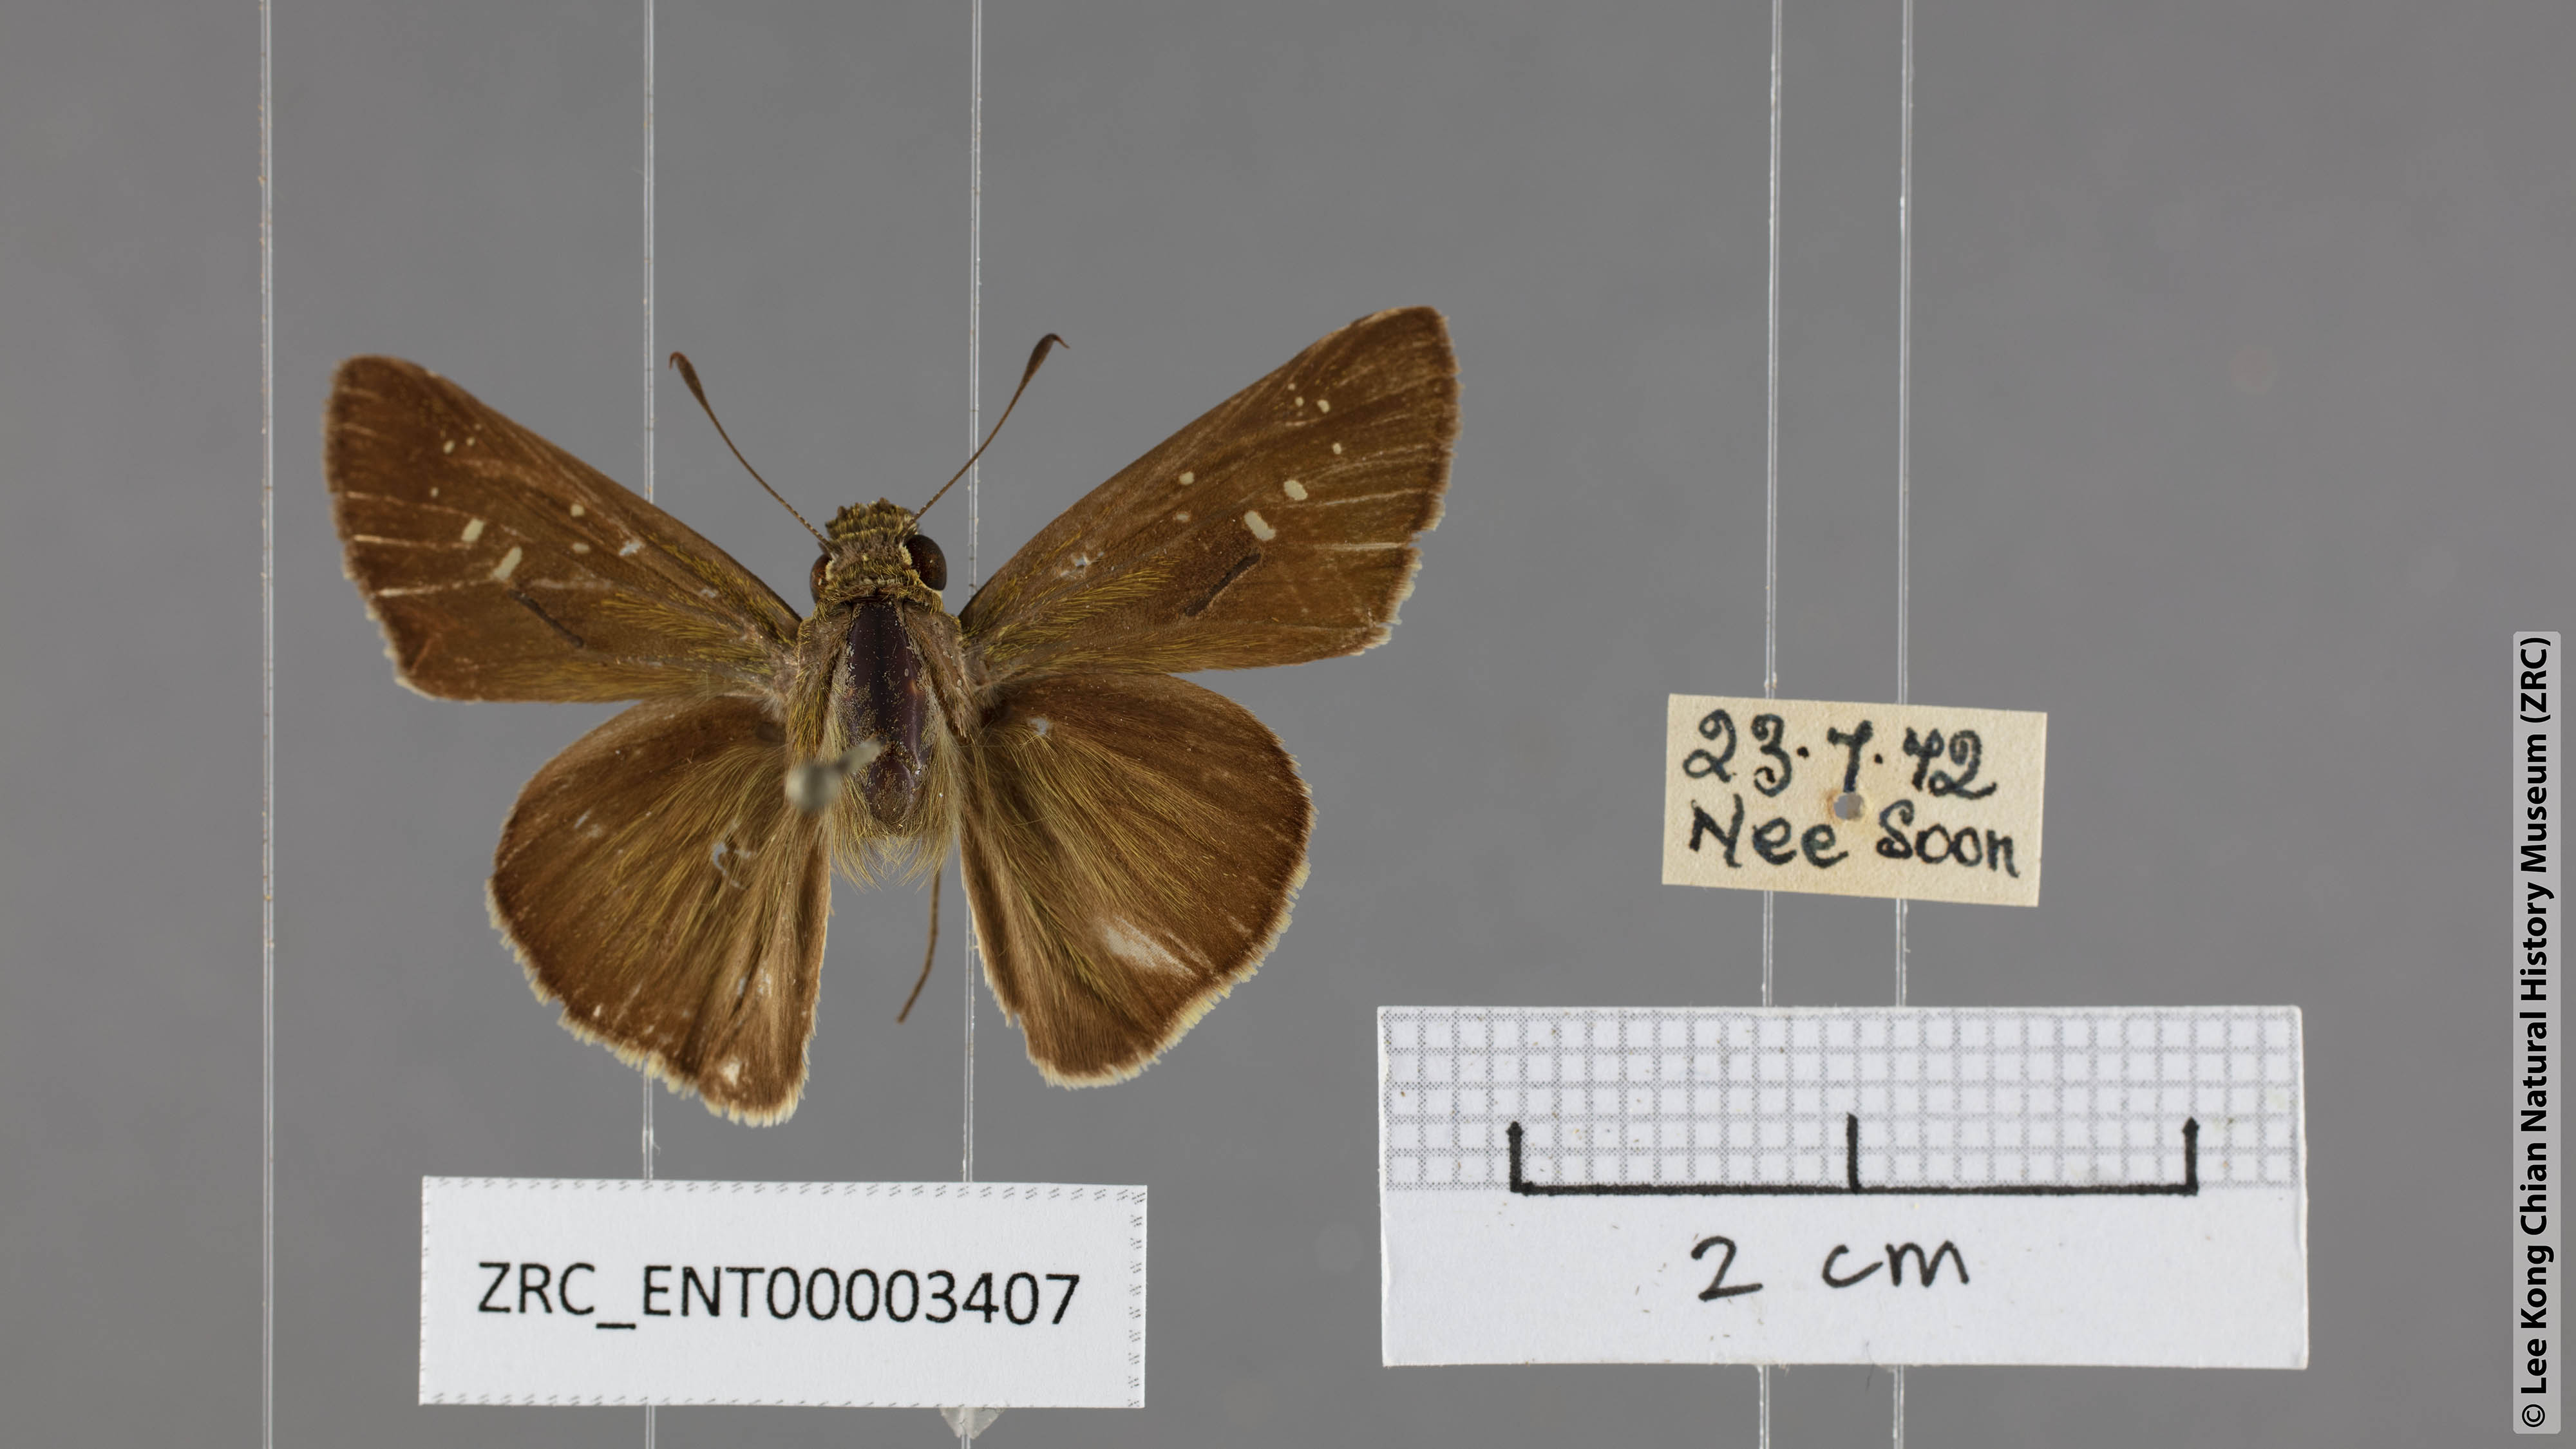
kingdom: Animalia
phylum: Arthropoda
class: Insecta
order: Lepidoptera
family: Hesperiidae
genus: Pelopidas
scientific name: Pelopidas mathias
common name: Black-branded swift
